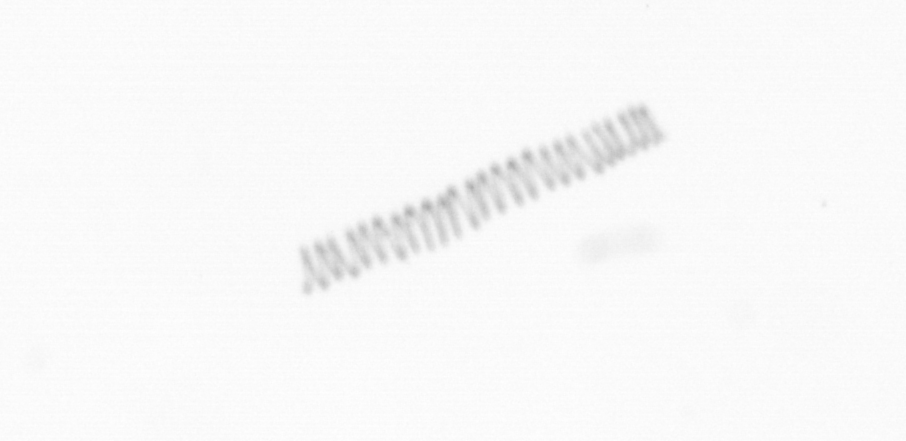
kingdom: Chromista
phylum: Ochrophyta
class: Bacillariophyceae
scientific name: Bacillariophyceae
